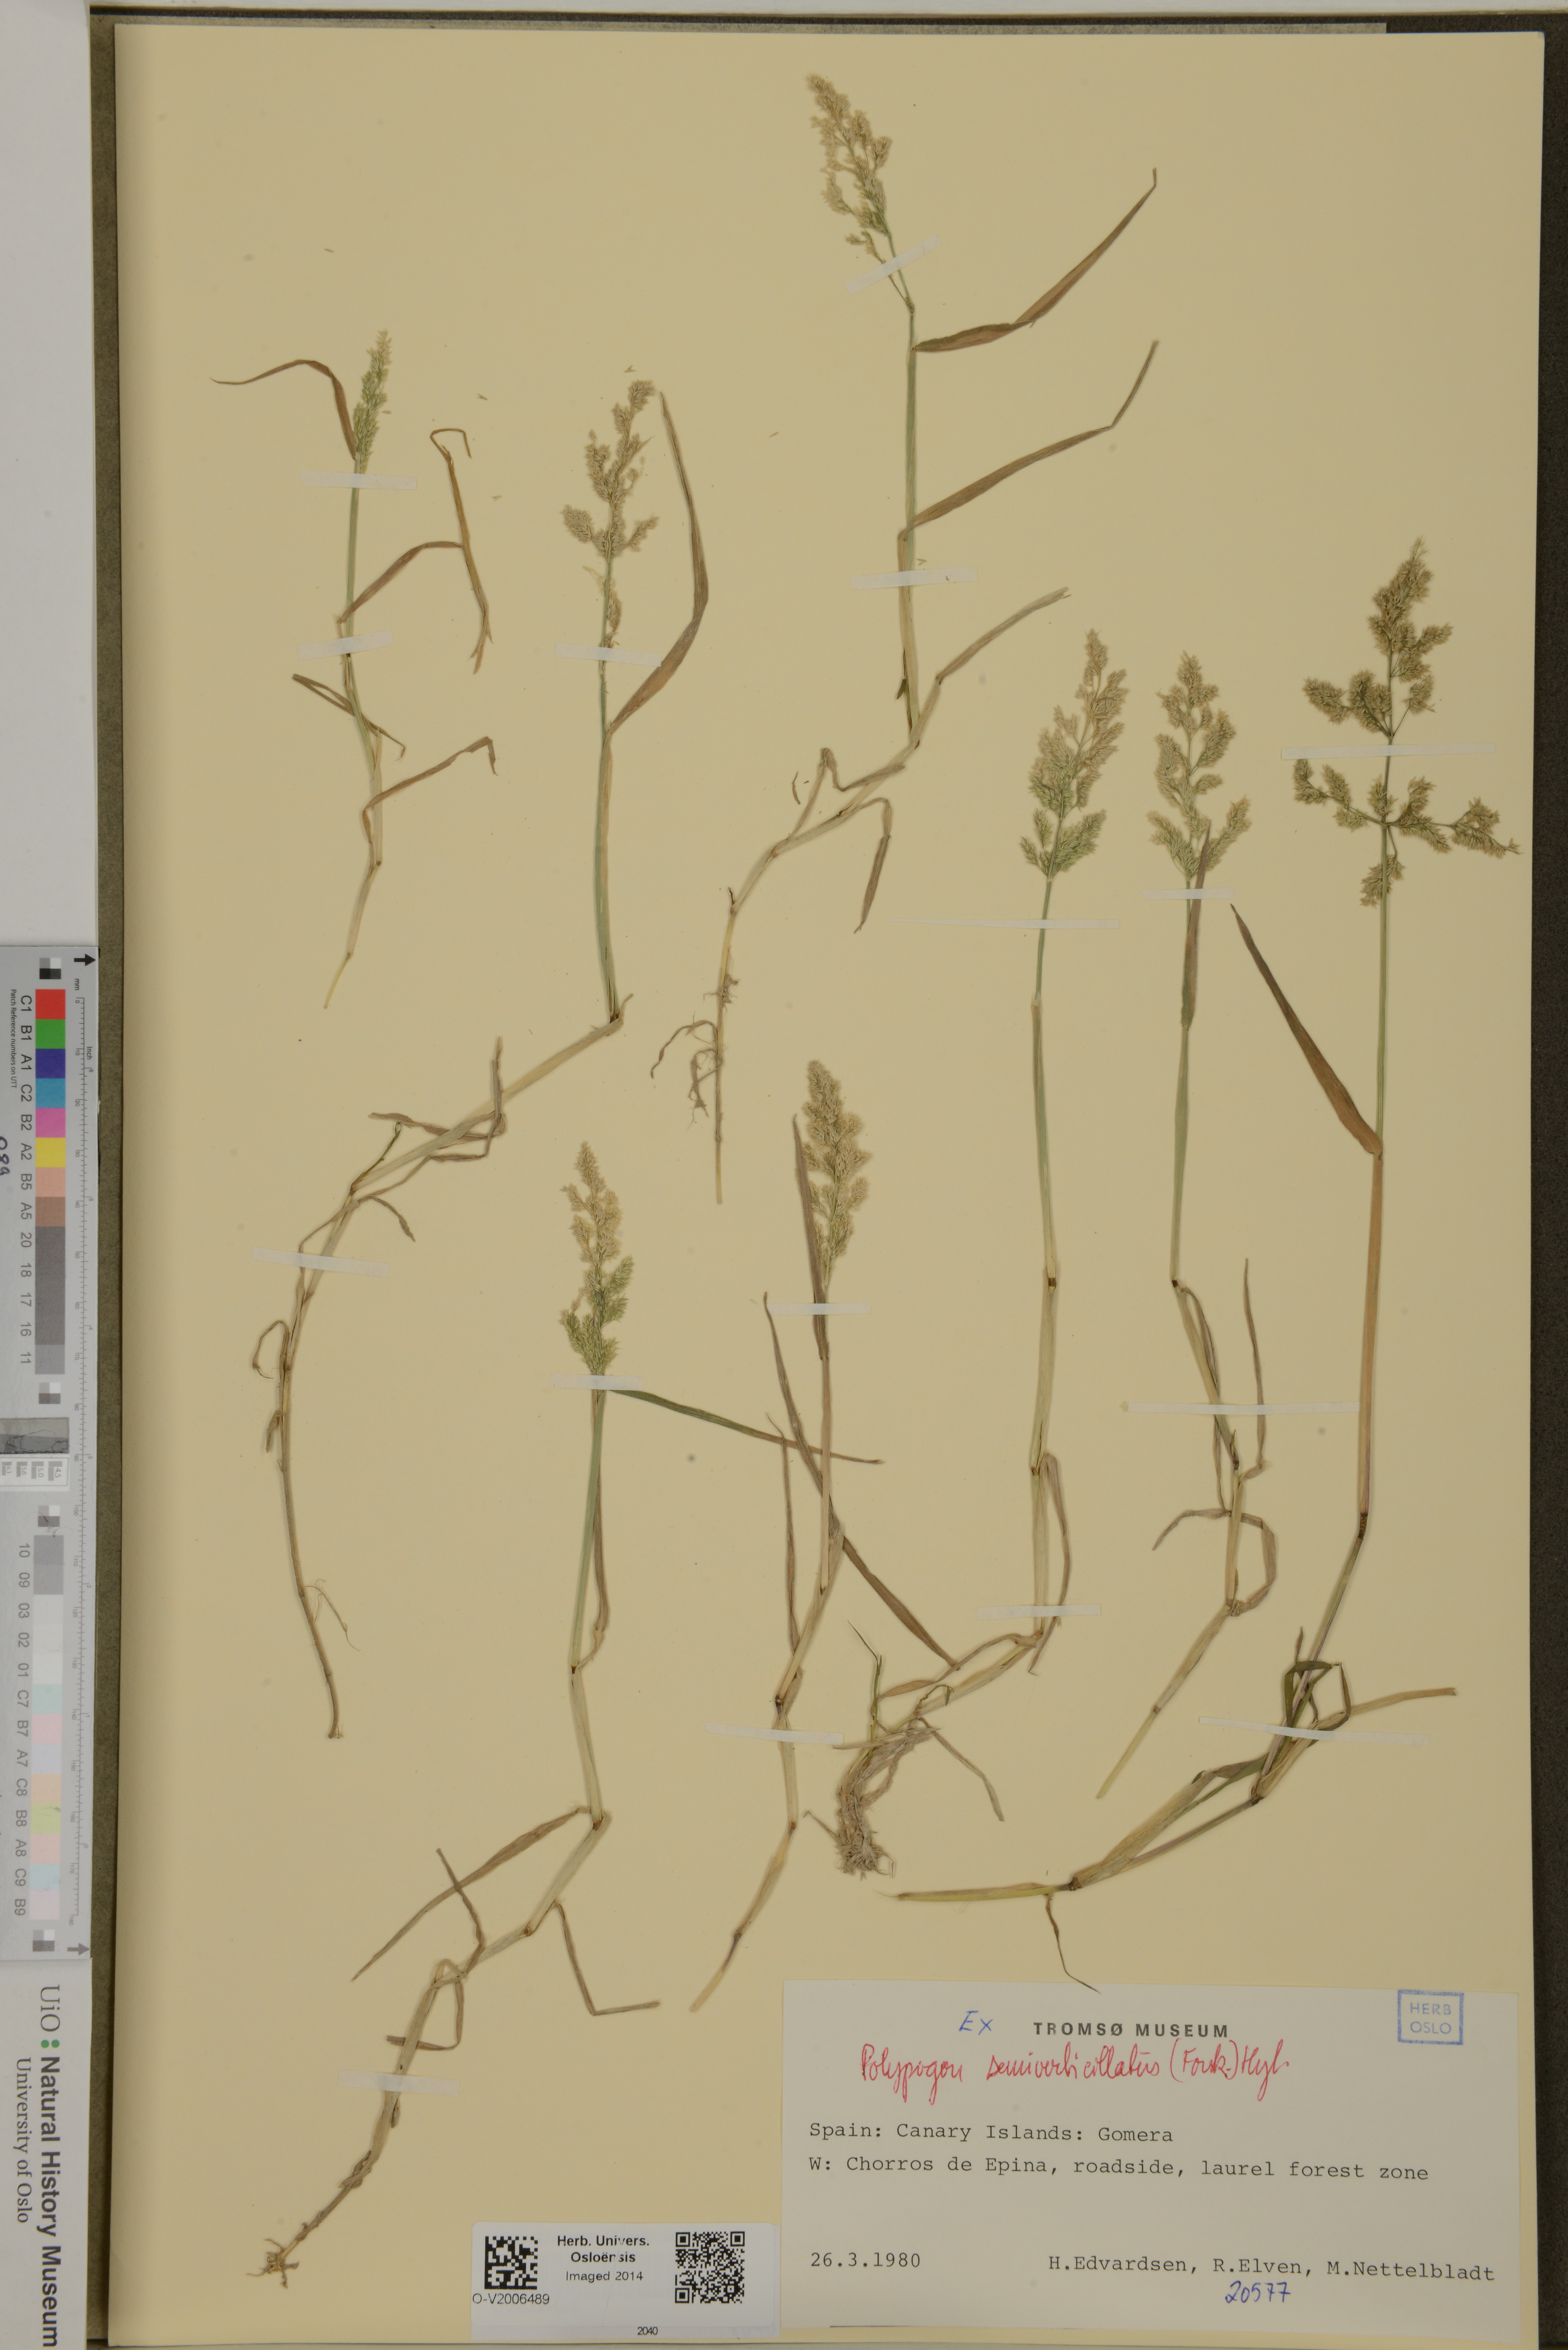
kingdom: Plantae
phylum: Tracheophyta
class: Liliopsida
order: Poales
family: Poaceae
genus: Polypogon
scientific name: Polypogon viridis
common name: Water bent
